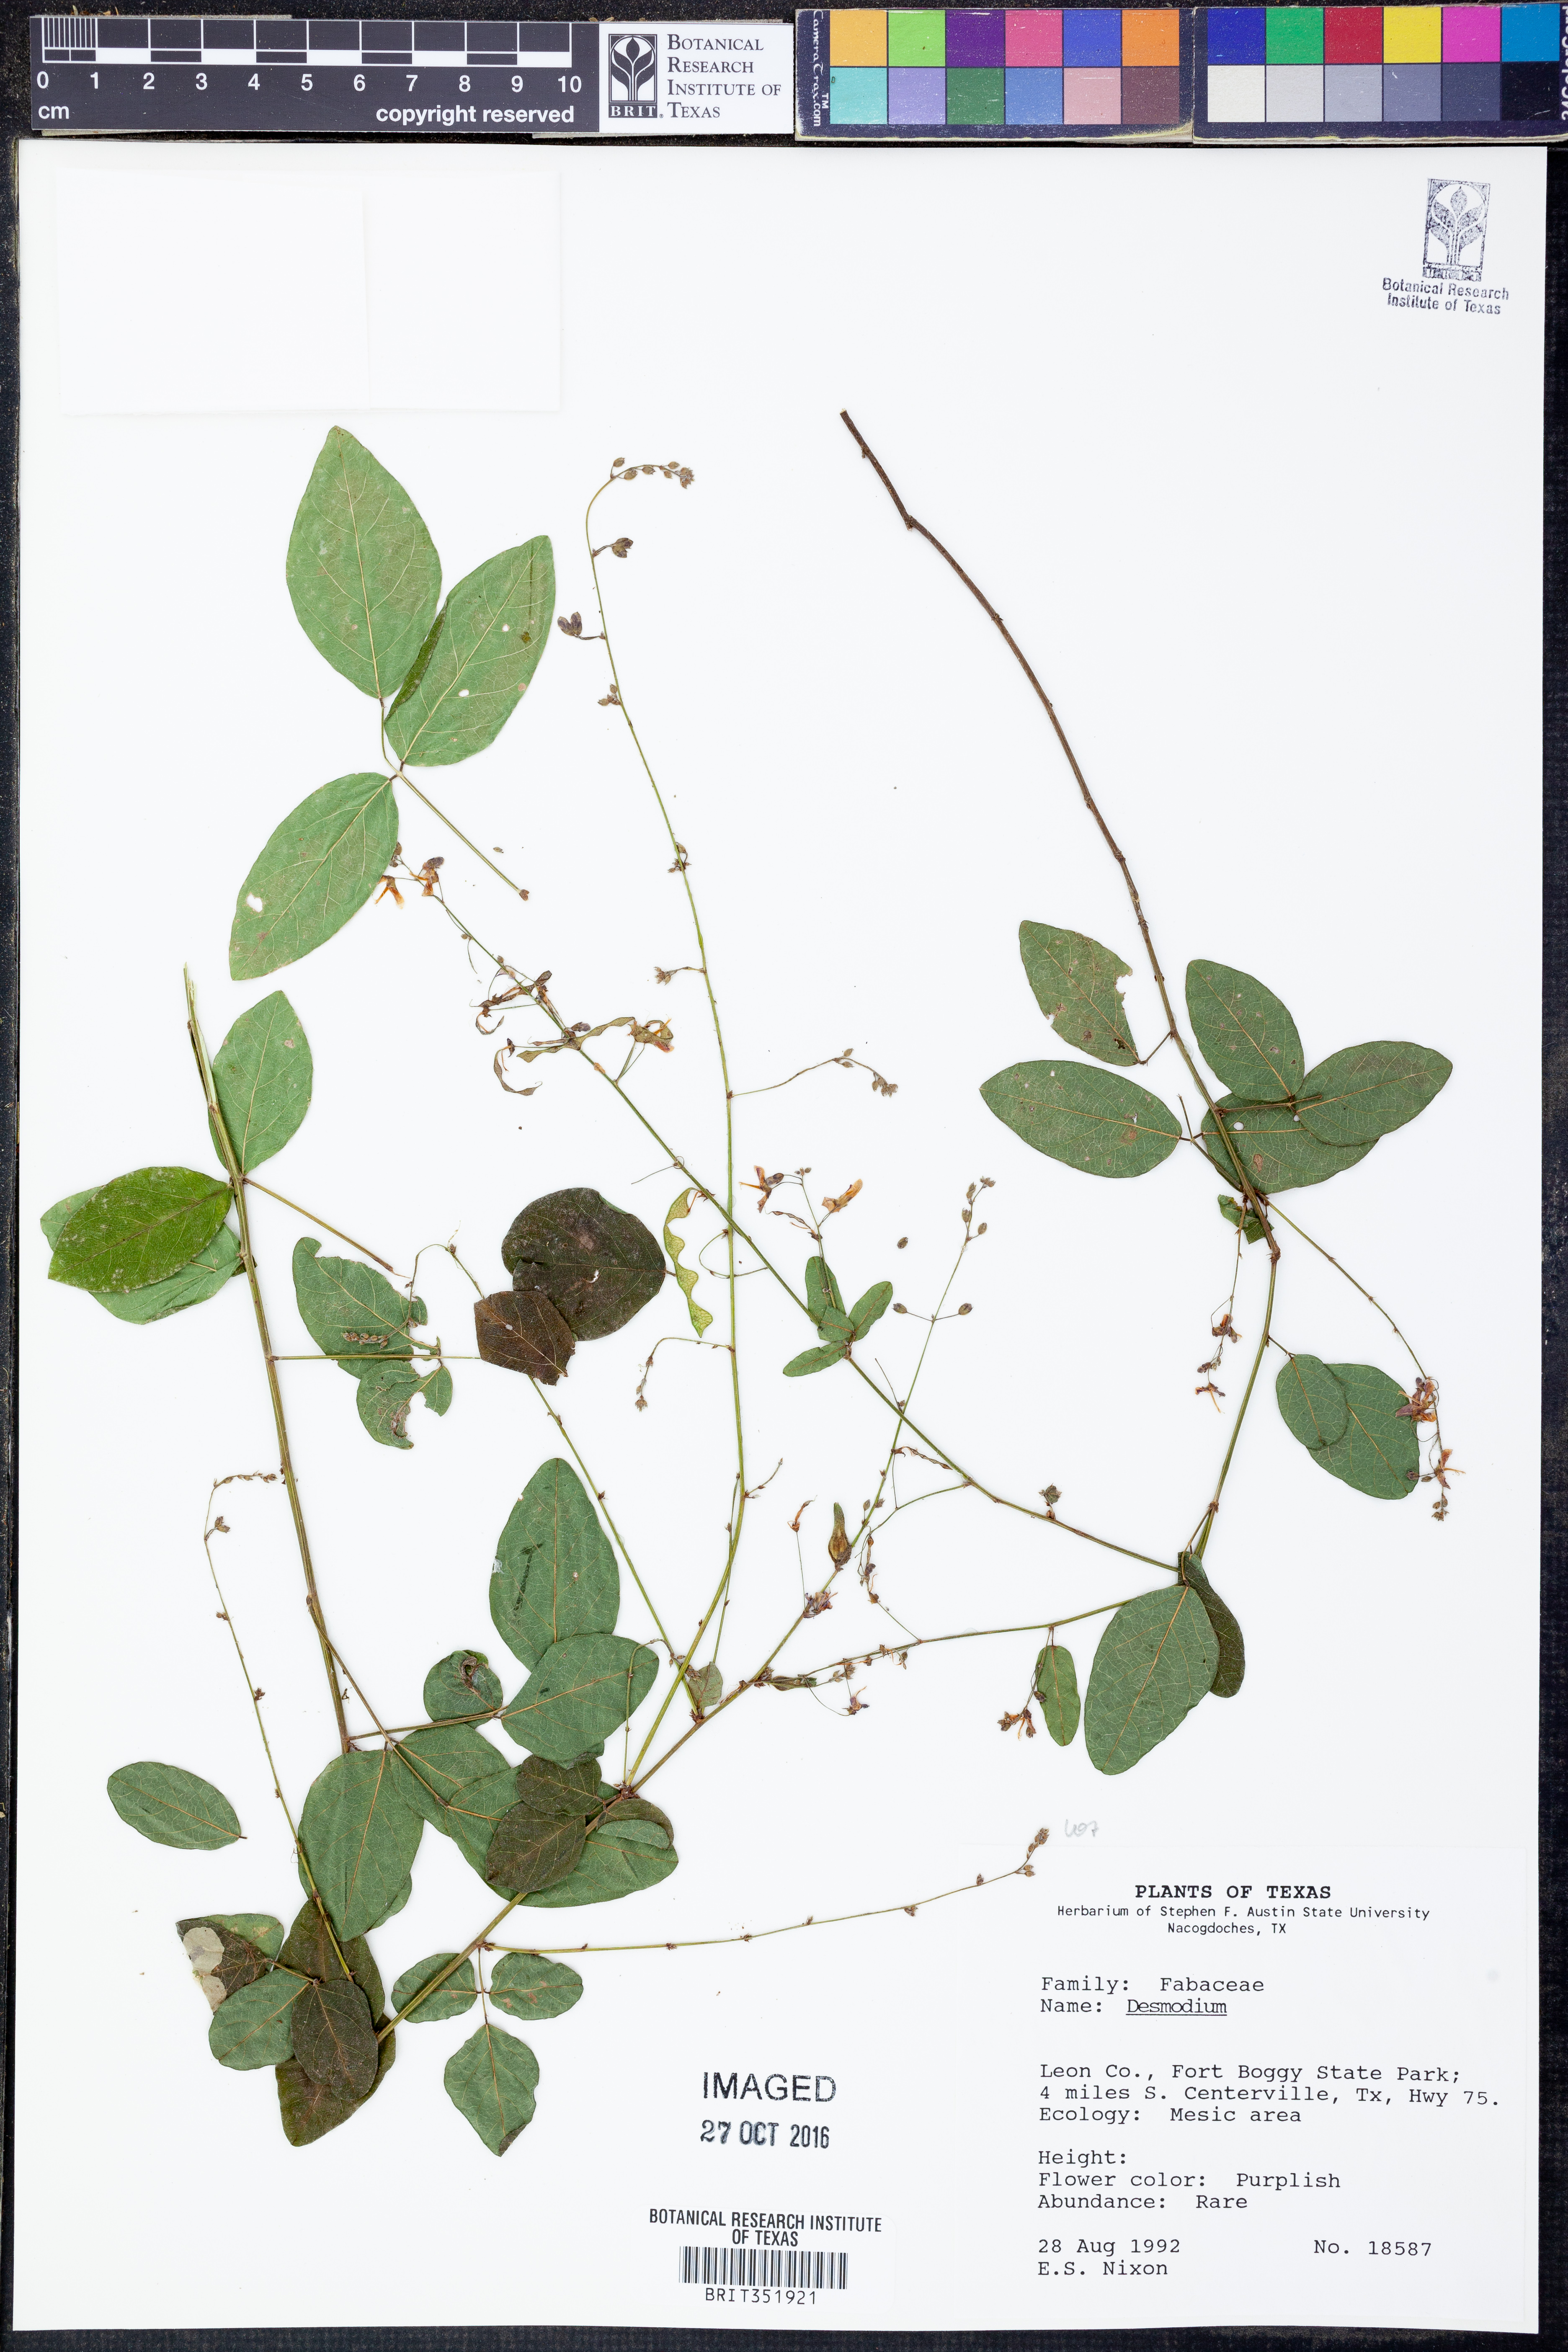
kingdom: Plantae
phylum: Tracheophyta
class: Magnoliopsida
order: Fabales
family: Fabaceae
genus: Desmodium
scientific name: Desmodium
